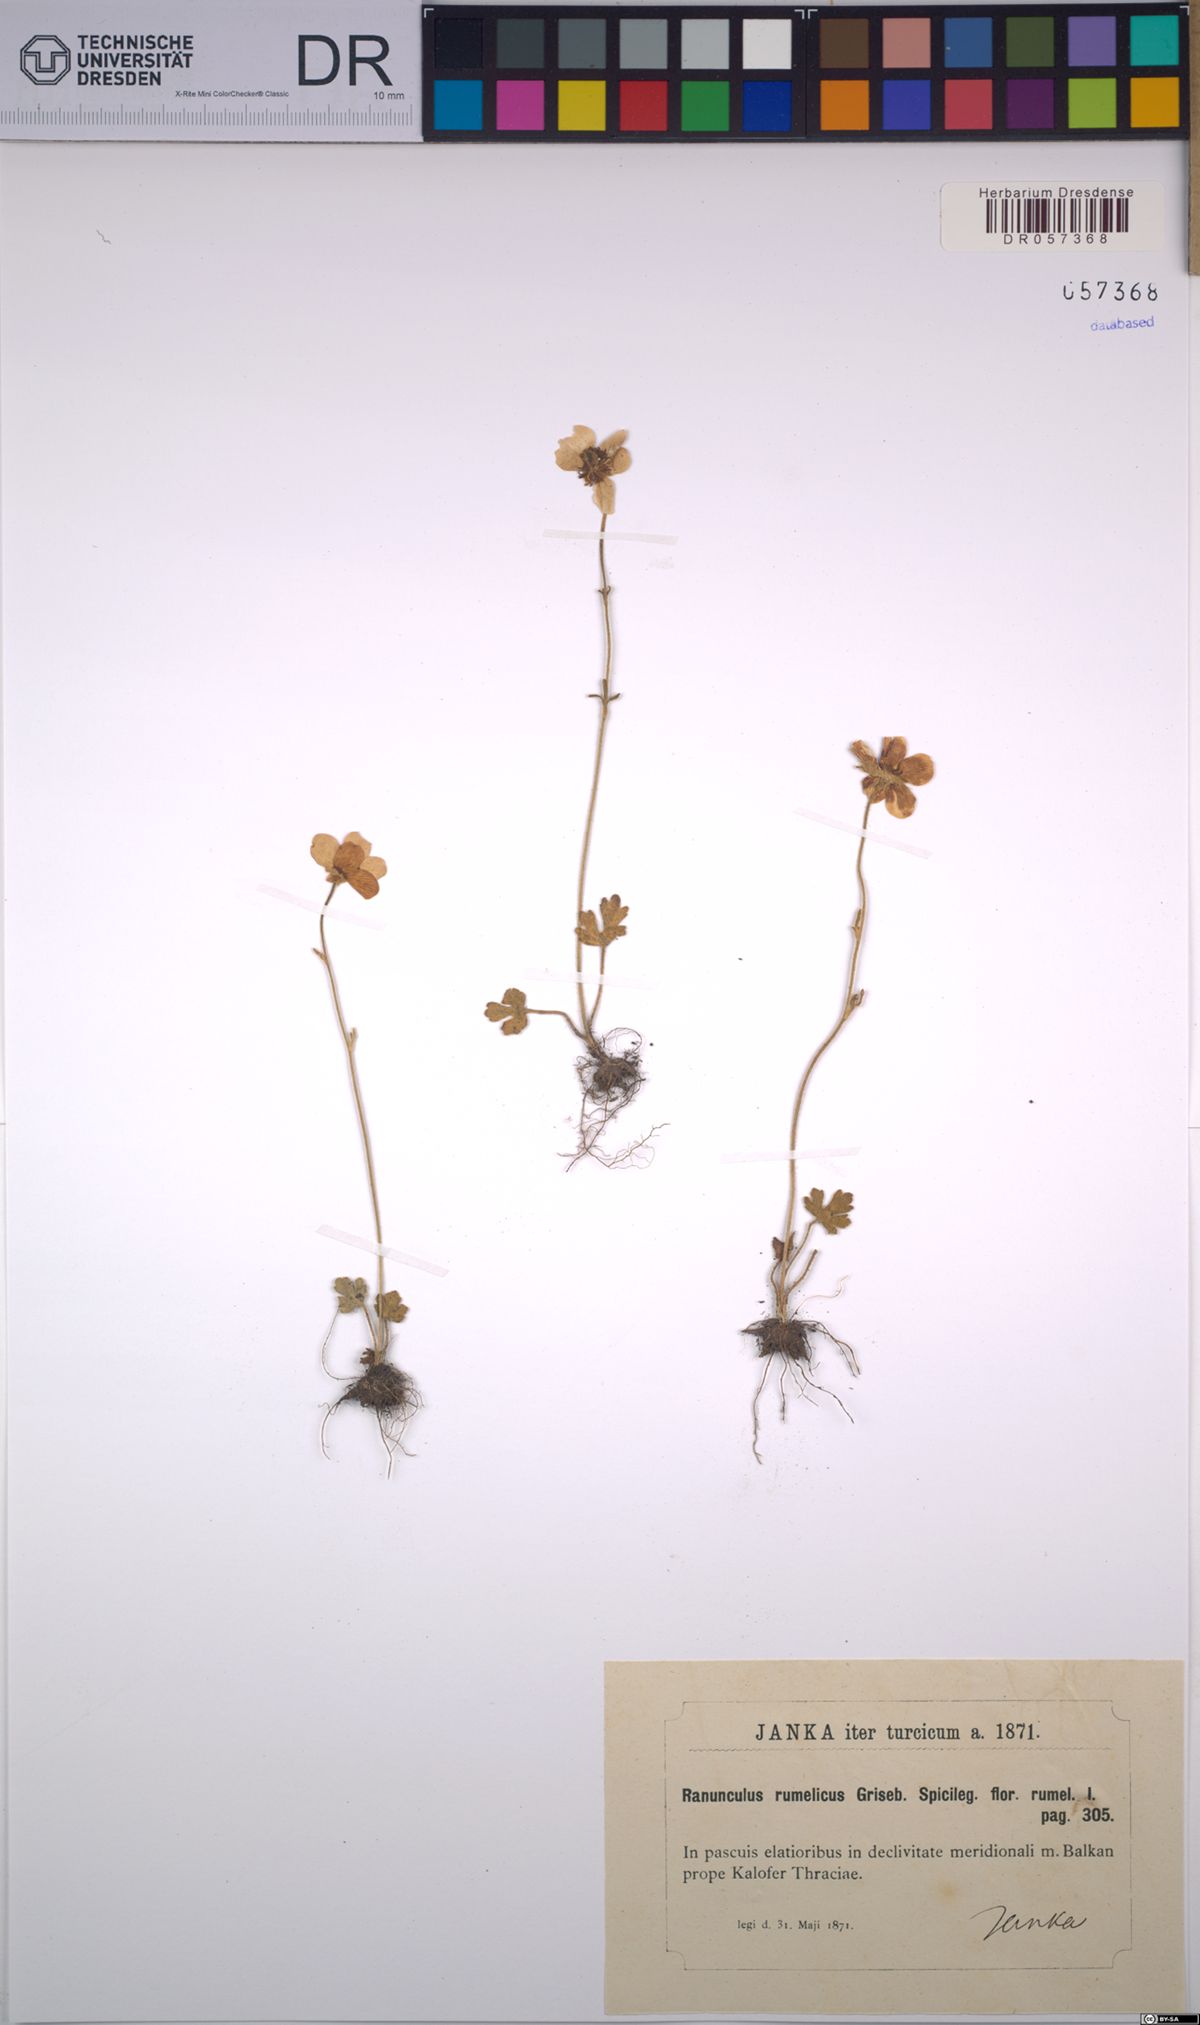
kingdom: Plantae
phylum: Tracheophyta
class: Magnoliopsida
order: Ranunculales
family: Ranunculaceae
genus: Ranunculus
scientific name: Ranunculus rumelicus
